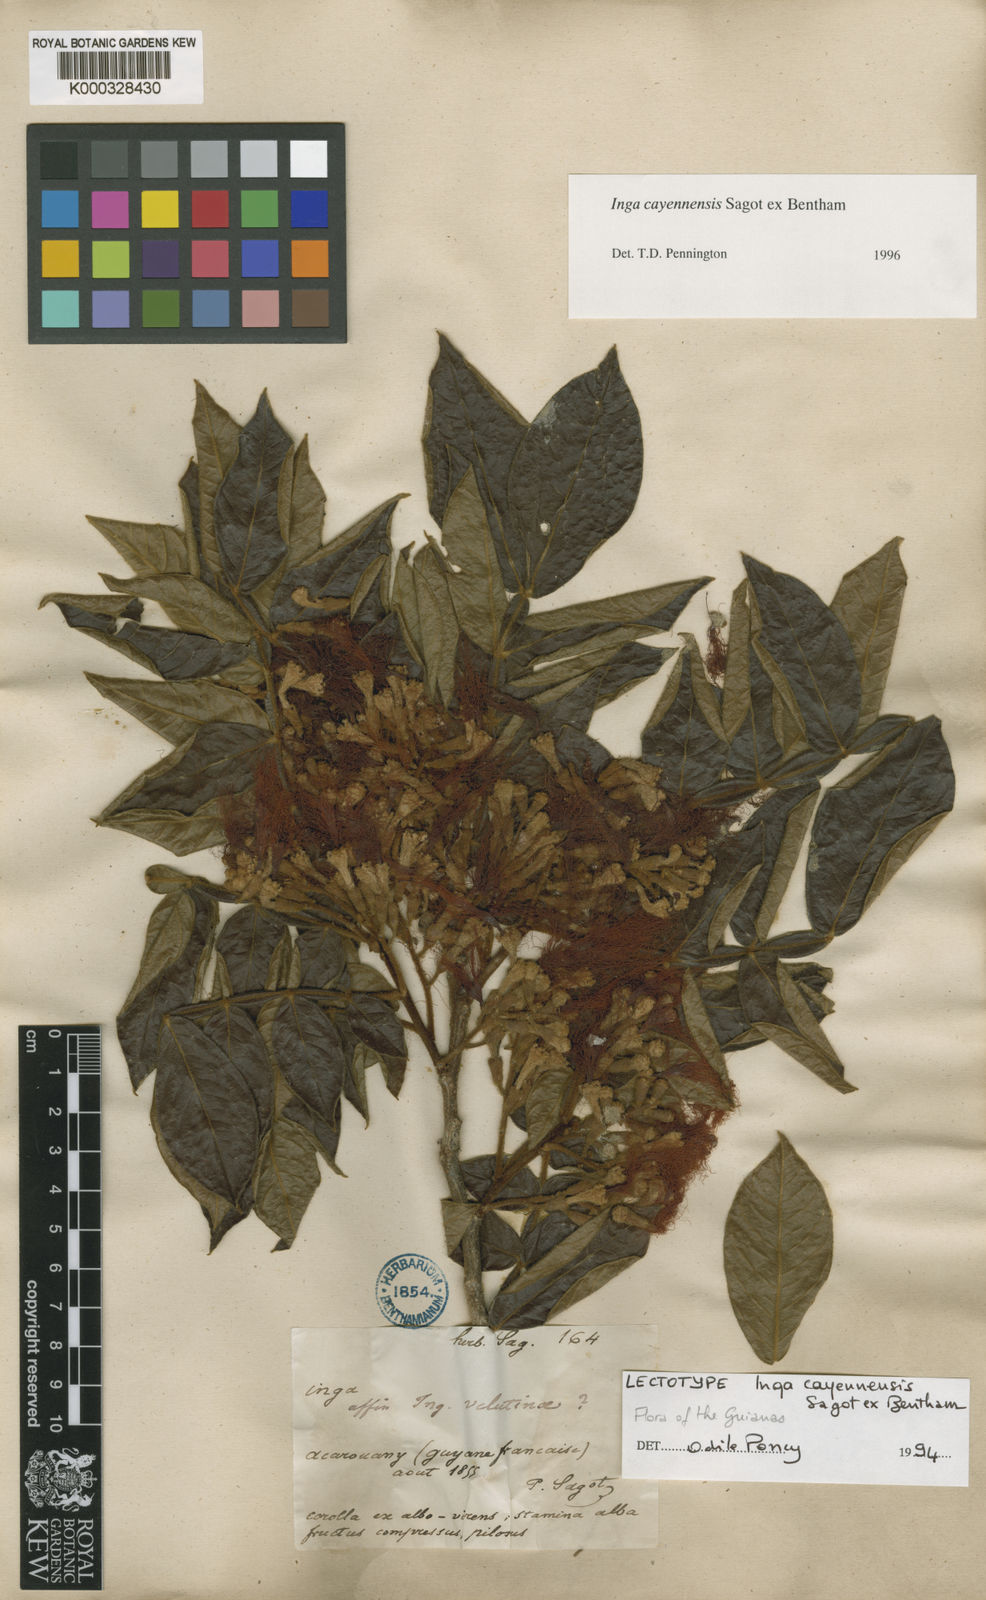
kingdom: Plantae
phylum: Tracheophyta
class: Magnoliopsida
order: Fabales
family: Fabaceae
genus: Inga
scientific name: Inga cayennensis
